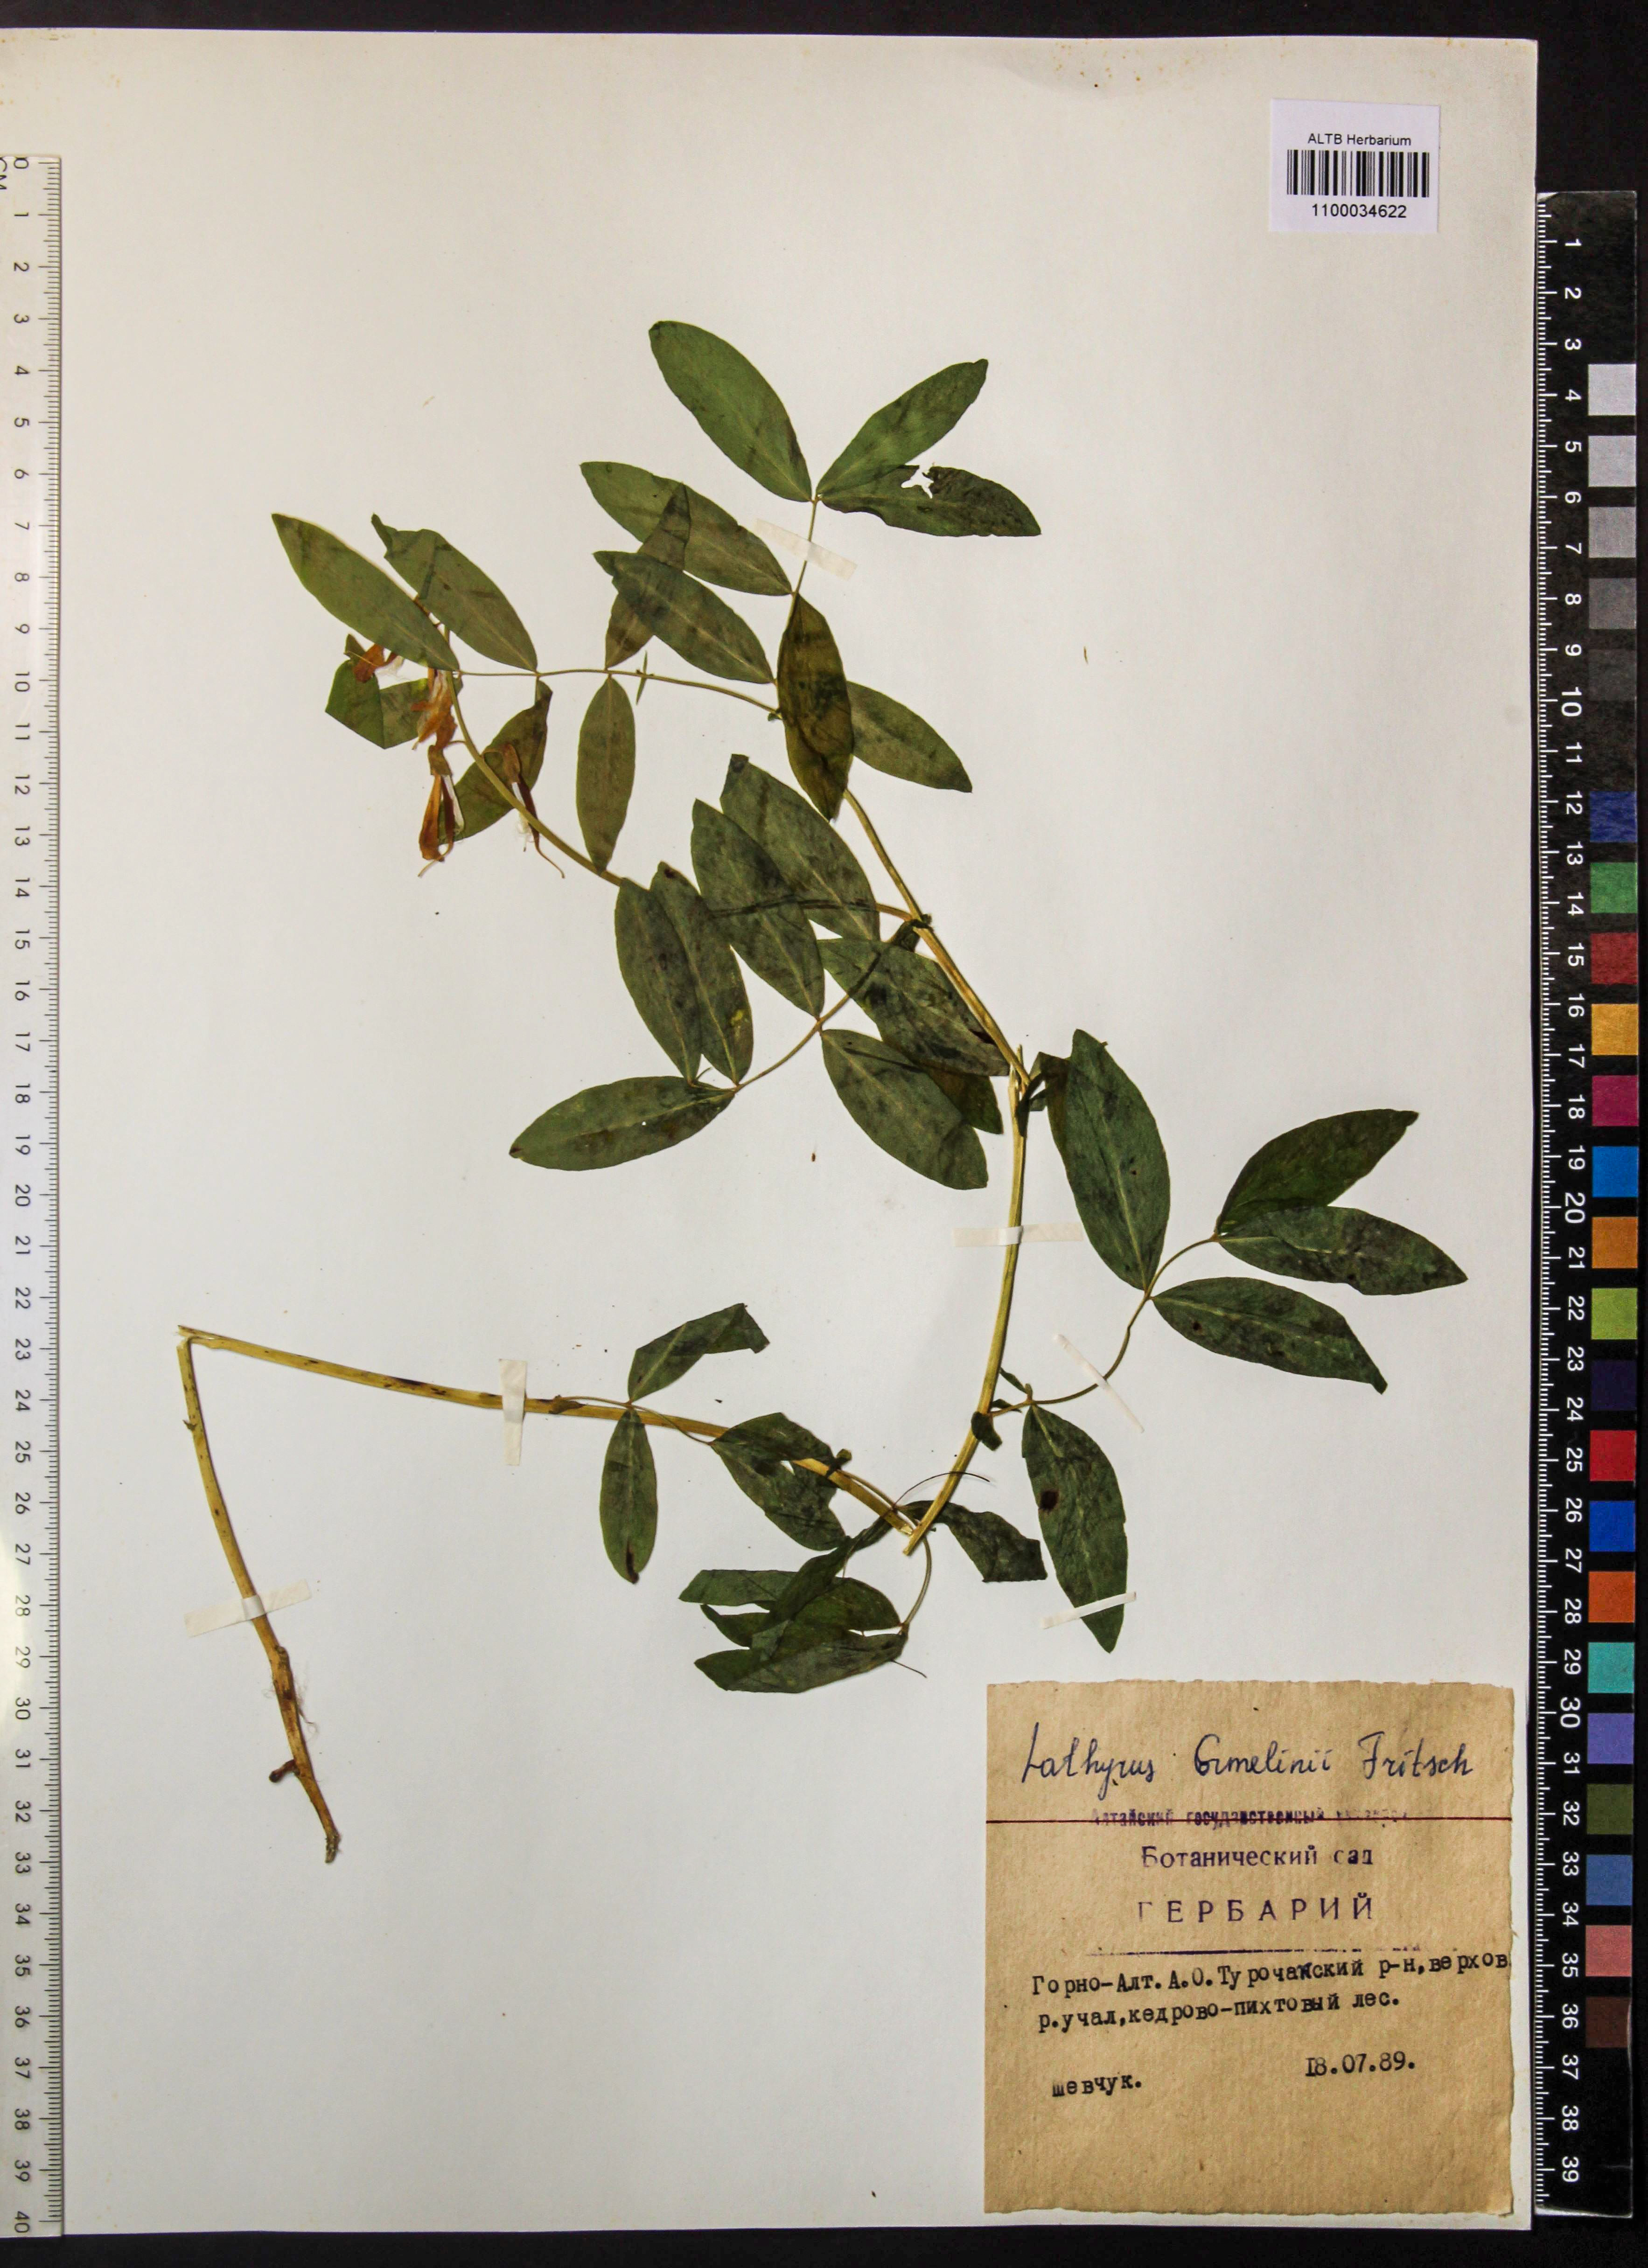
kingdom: Plantae
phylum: Tracheophyta
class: Magnoliopsida
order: Fabales
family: Fabaceae
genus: Lathyrus
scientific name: Lathyrus gmelinii
